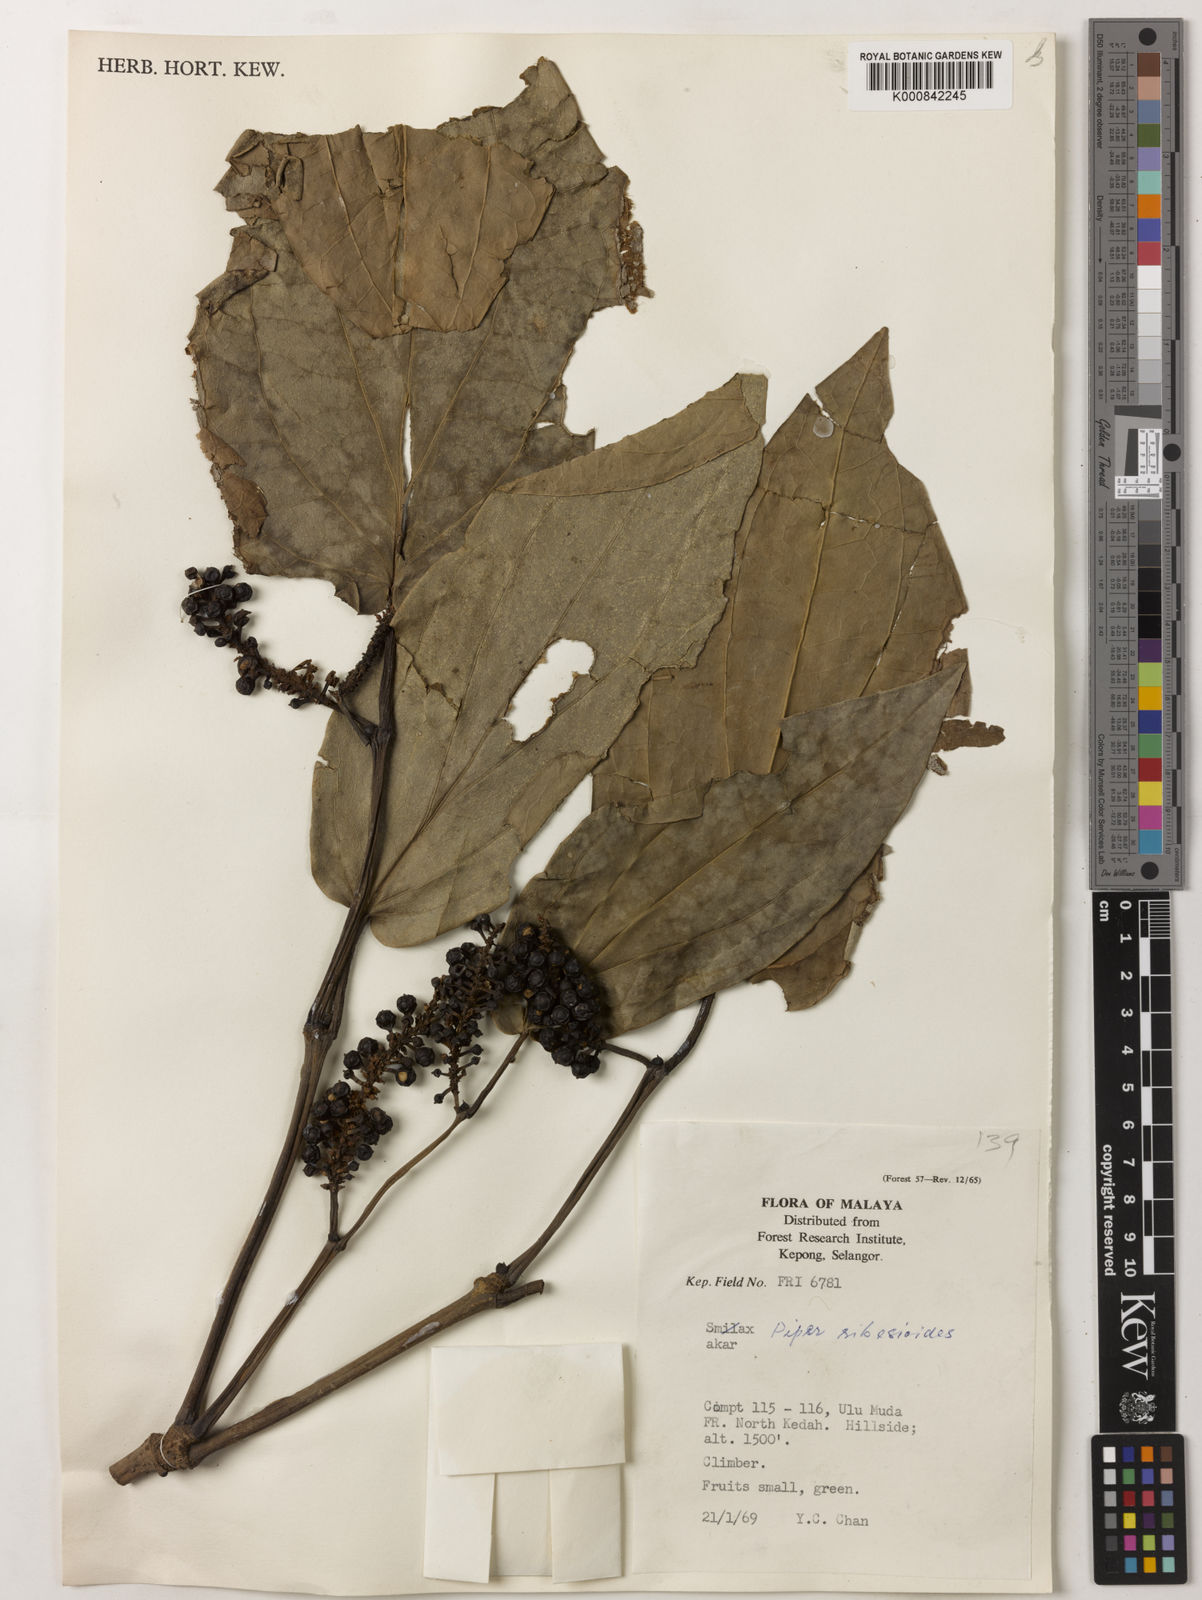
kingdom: Plantae
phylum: Tracheophyta
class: Magnoliopsida
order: Piperales
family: Piperaceae
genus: Piper
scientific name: Piper ribesioides
